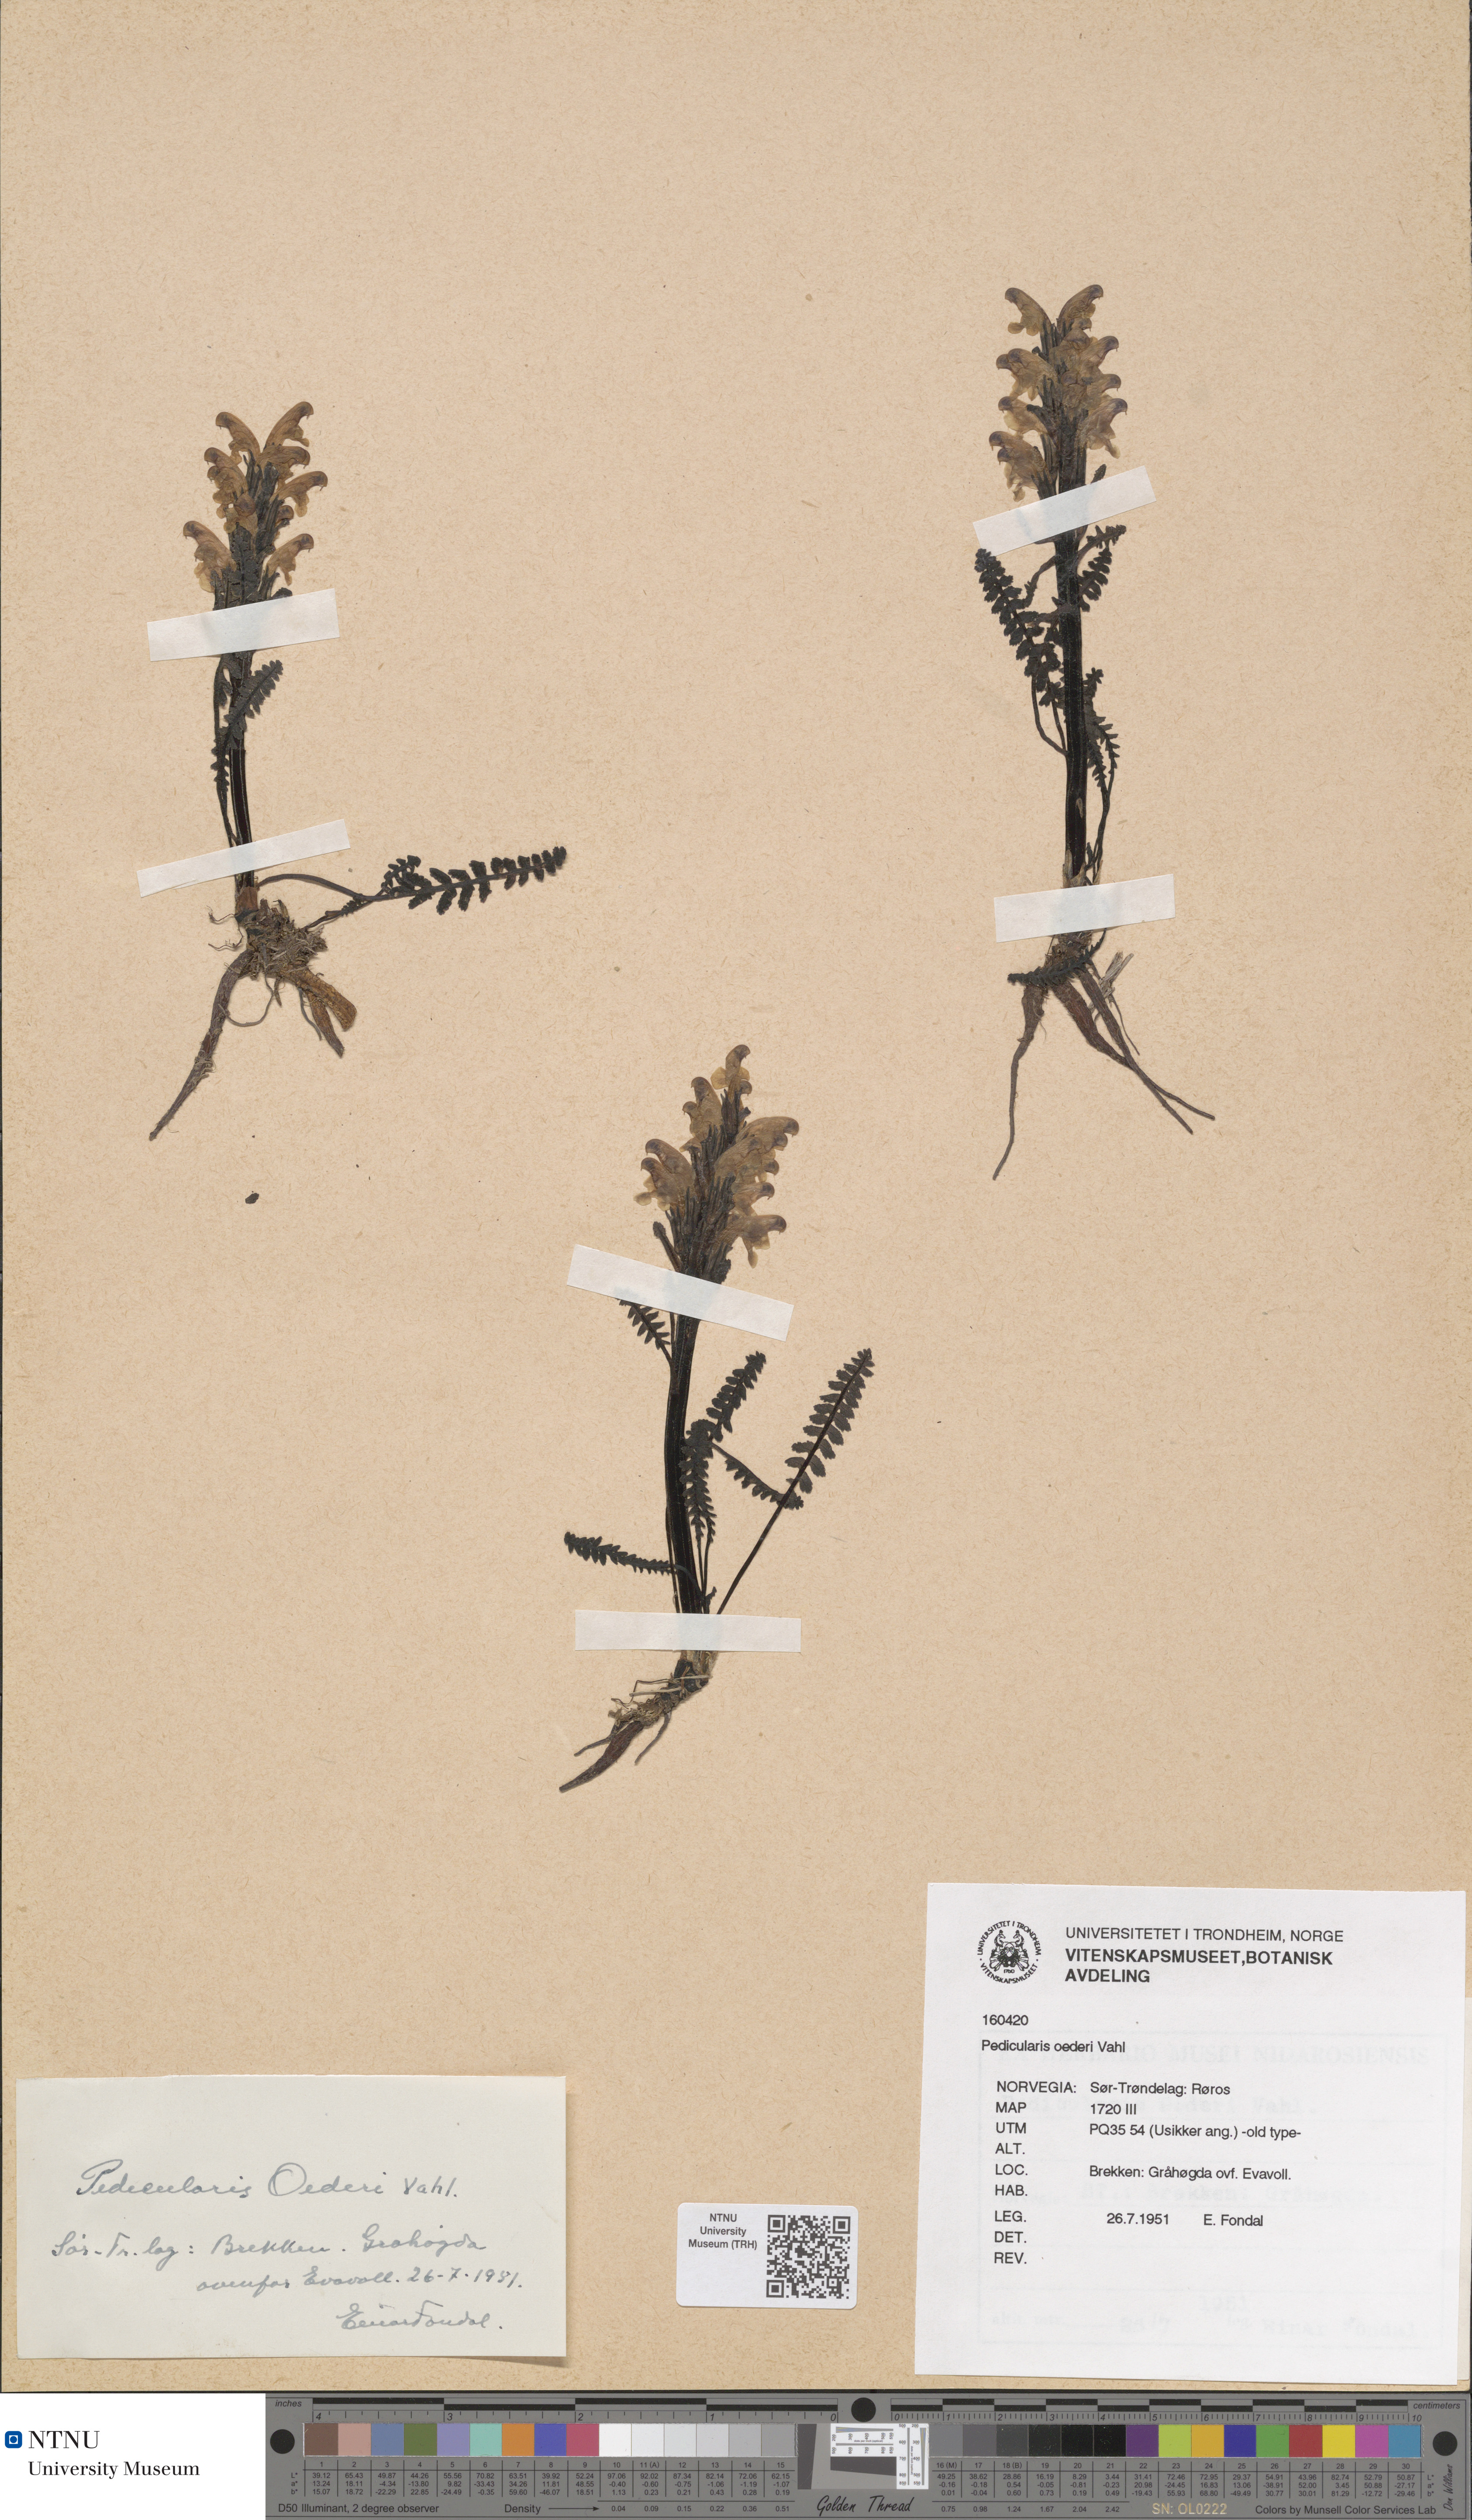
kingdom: Plantae
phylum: Tracheophyta
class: Magnoliopsida
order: Lamiales
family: Orobanchaceae
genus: Pedicularis
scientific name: Pedicularis oederi
